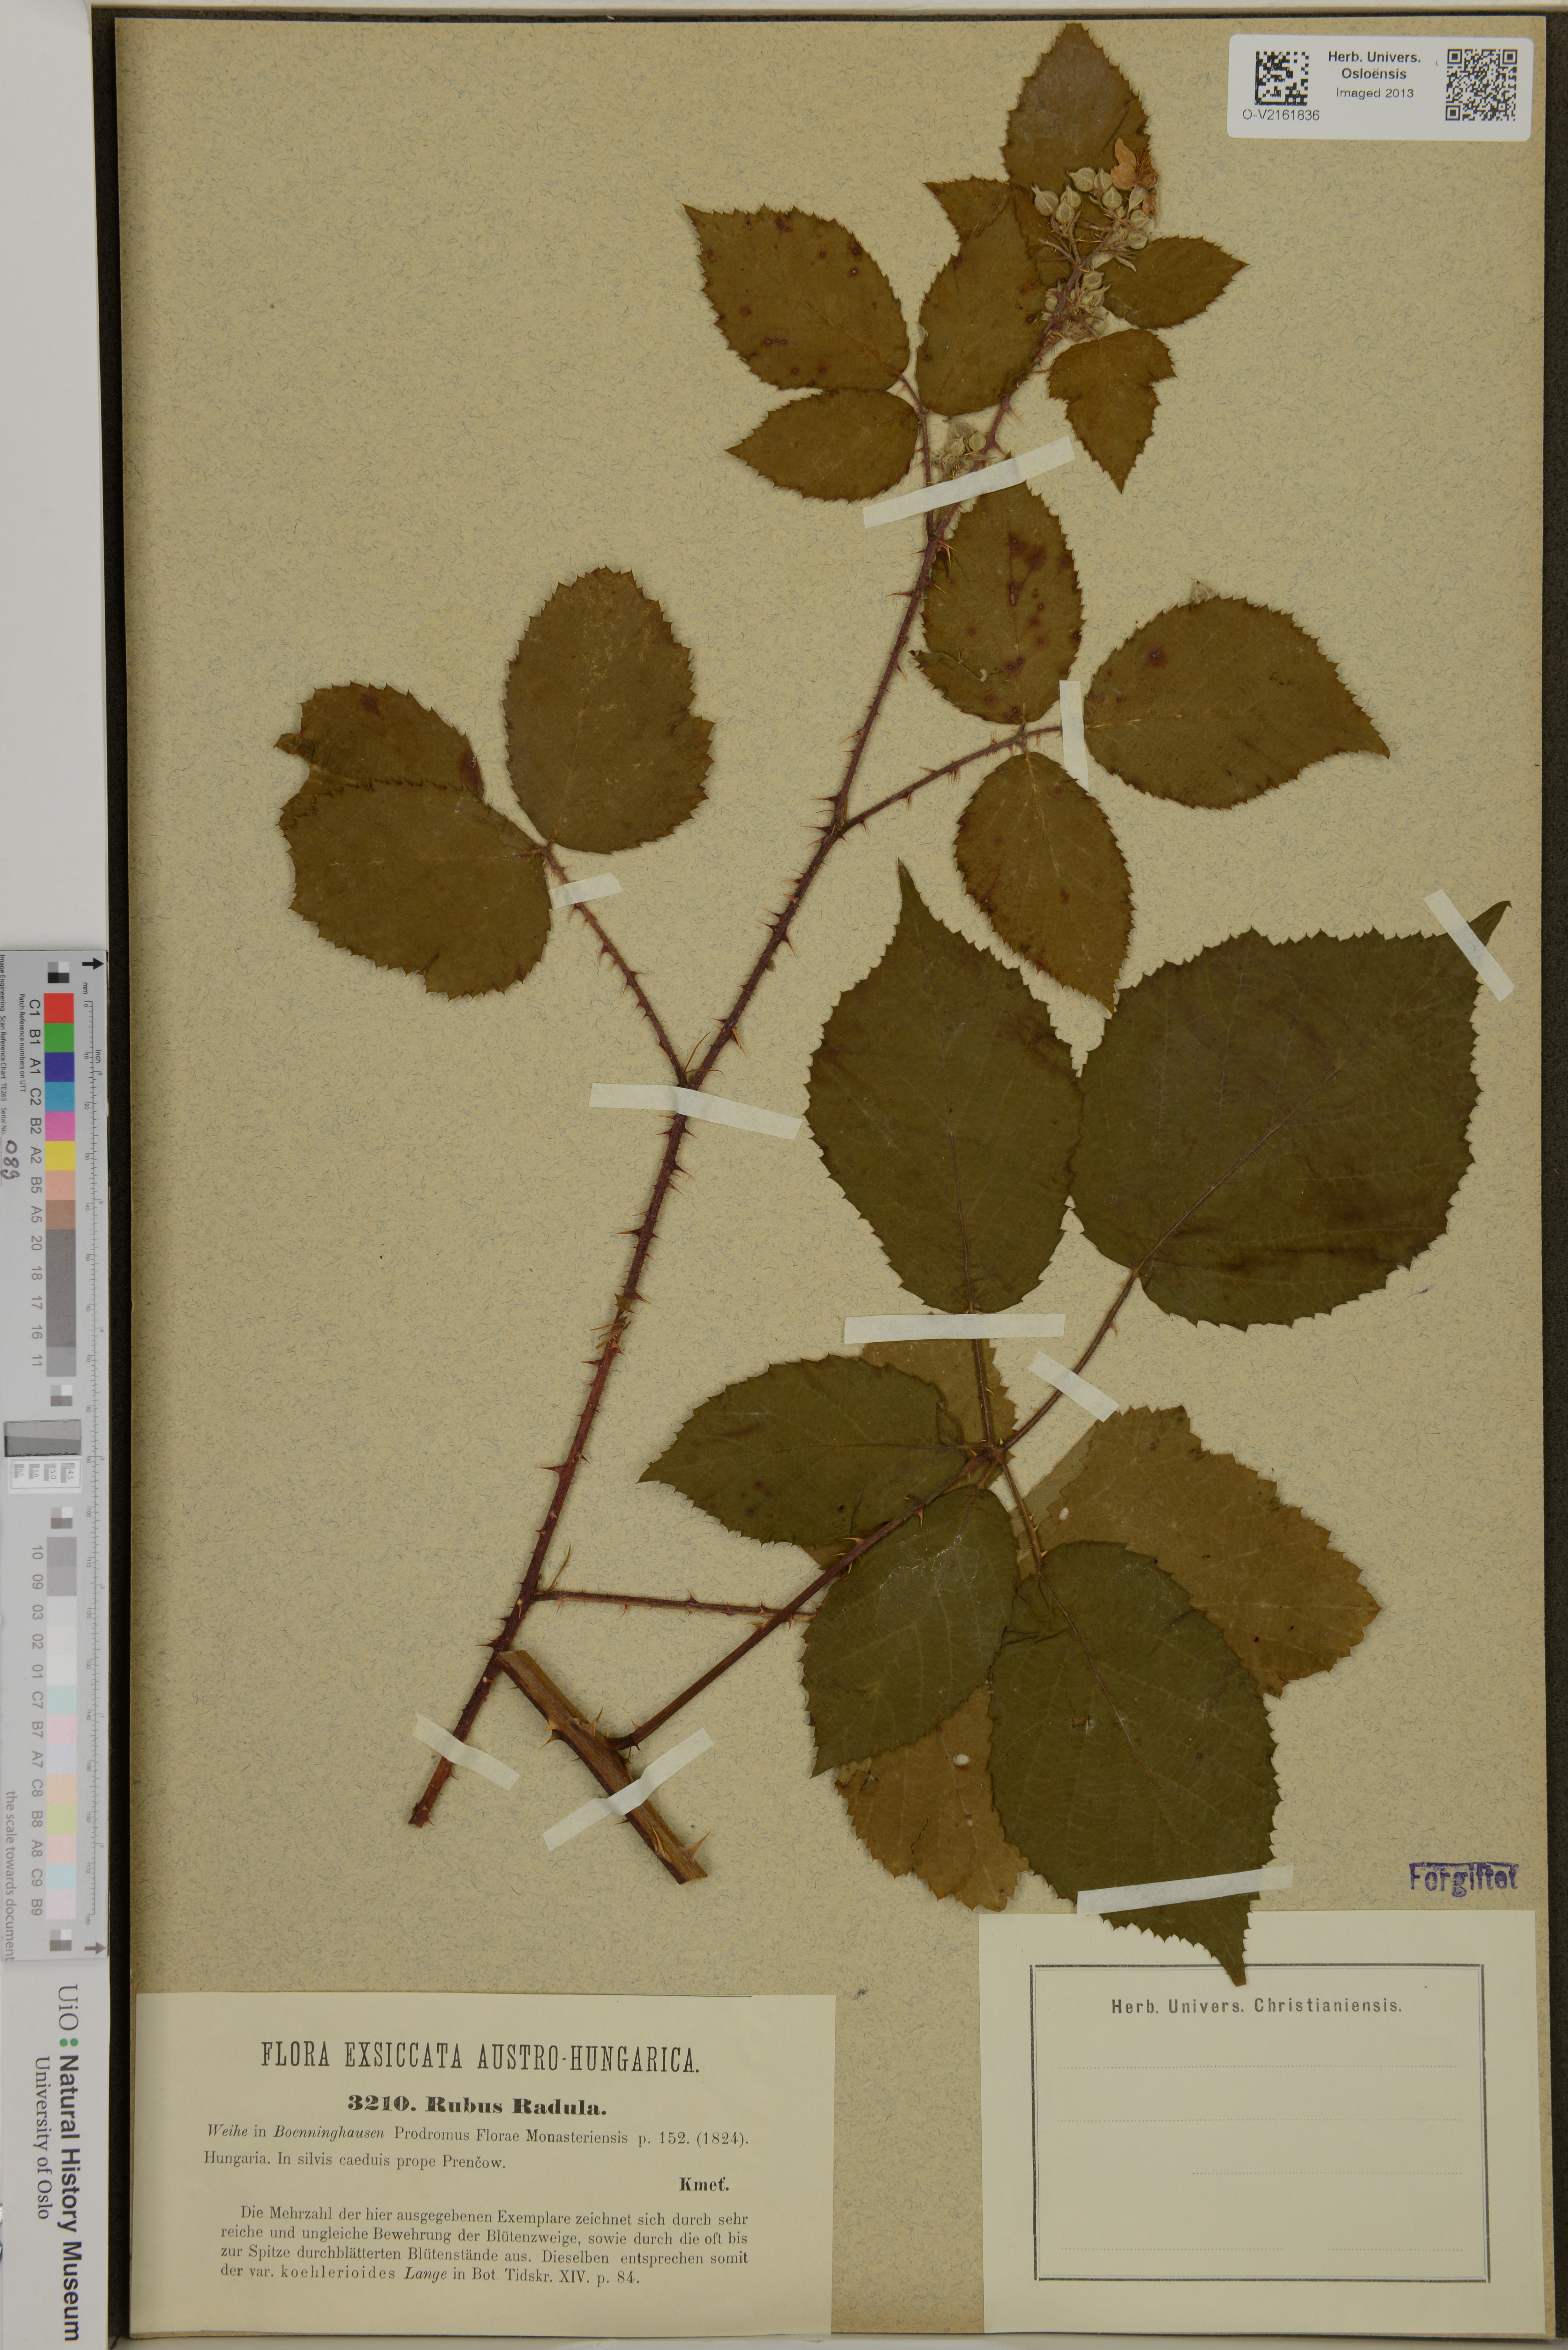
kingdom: Plantae
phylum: Tracheophyta
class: Magnoliopsida
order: Rosales
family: Rosaceae
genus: Rubus
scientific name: Rubus radula
